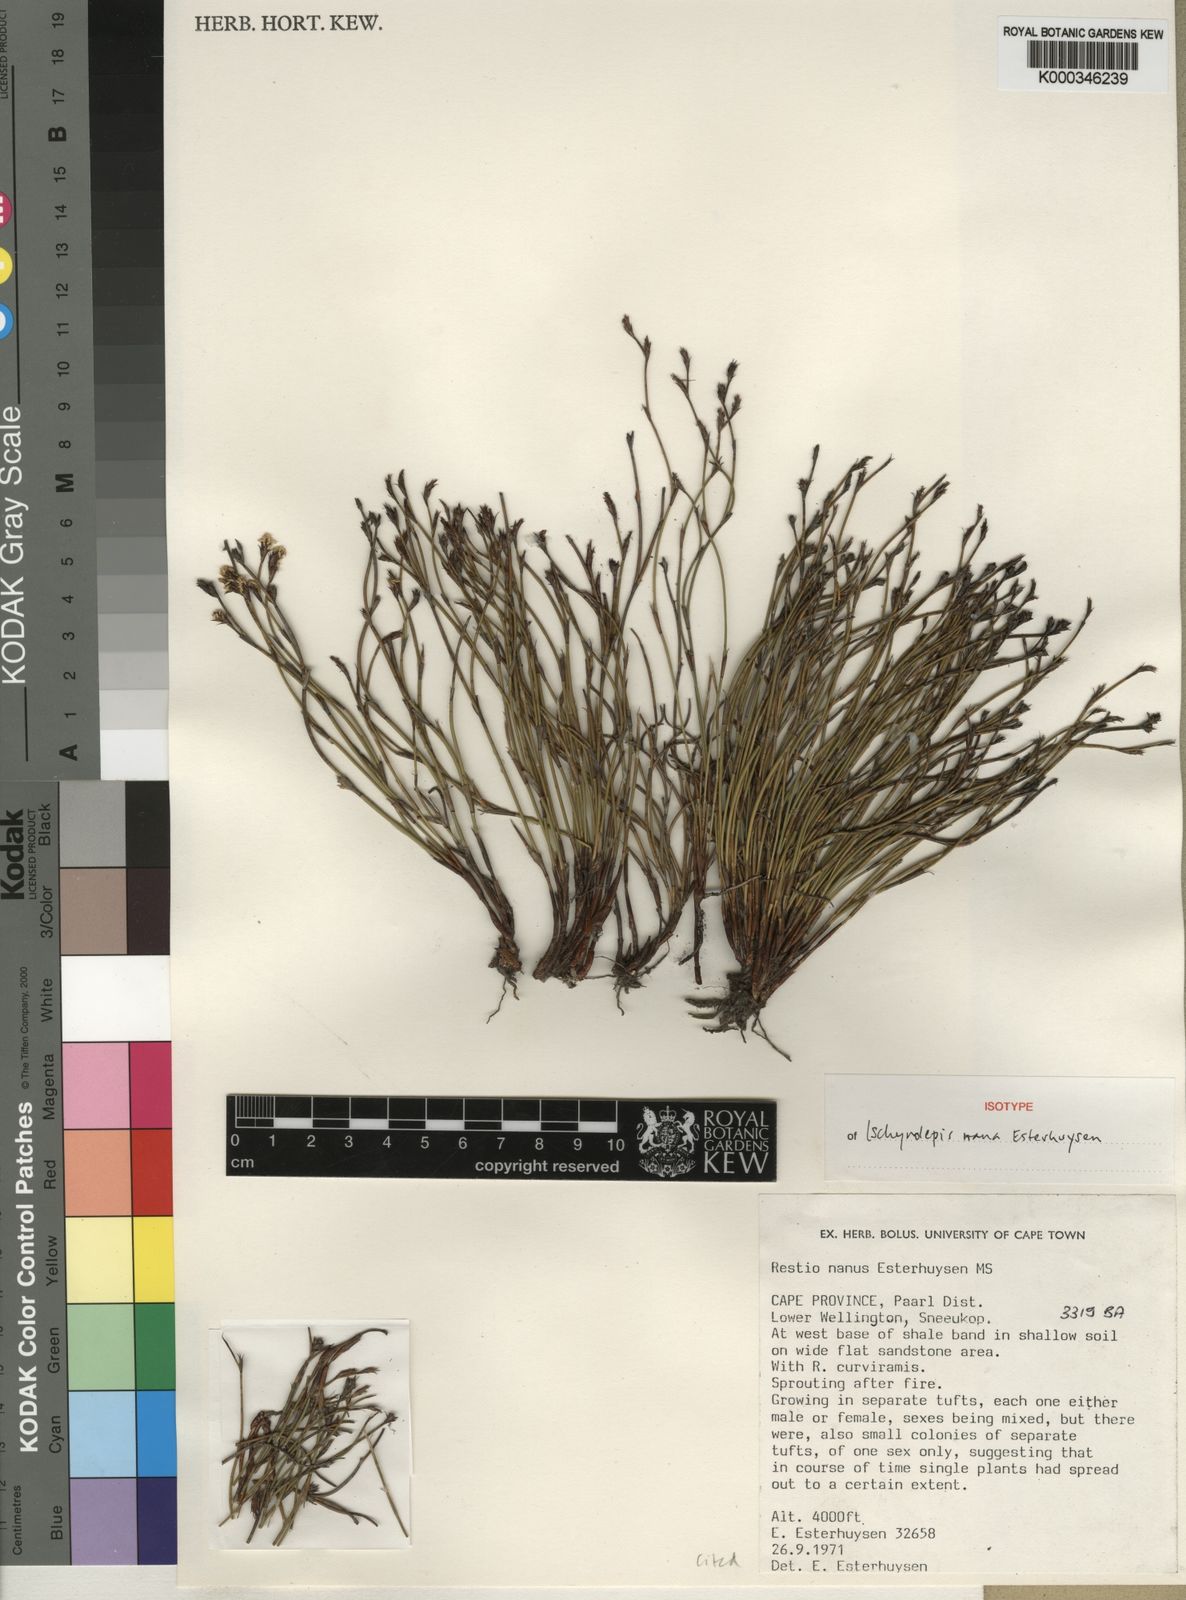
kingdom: Plantae
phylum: Tracheophyta
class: Liliopsida
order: Poales
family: Restionaceae
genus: Restio
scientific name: Restio nanus
